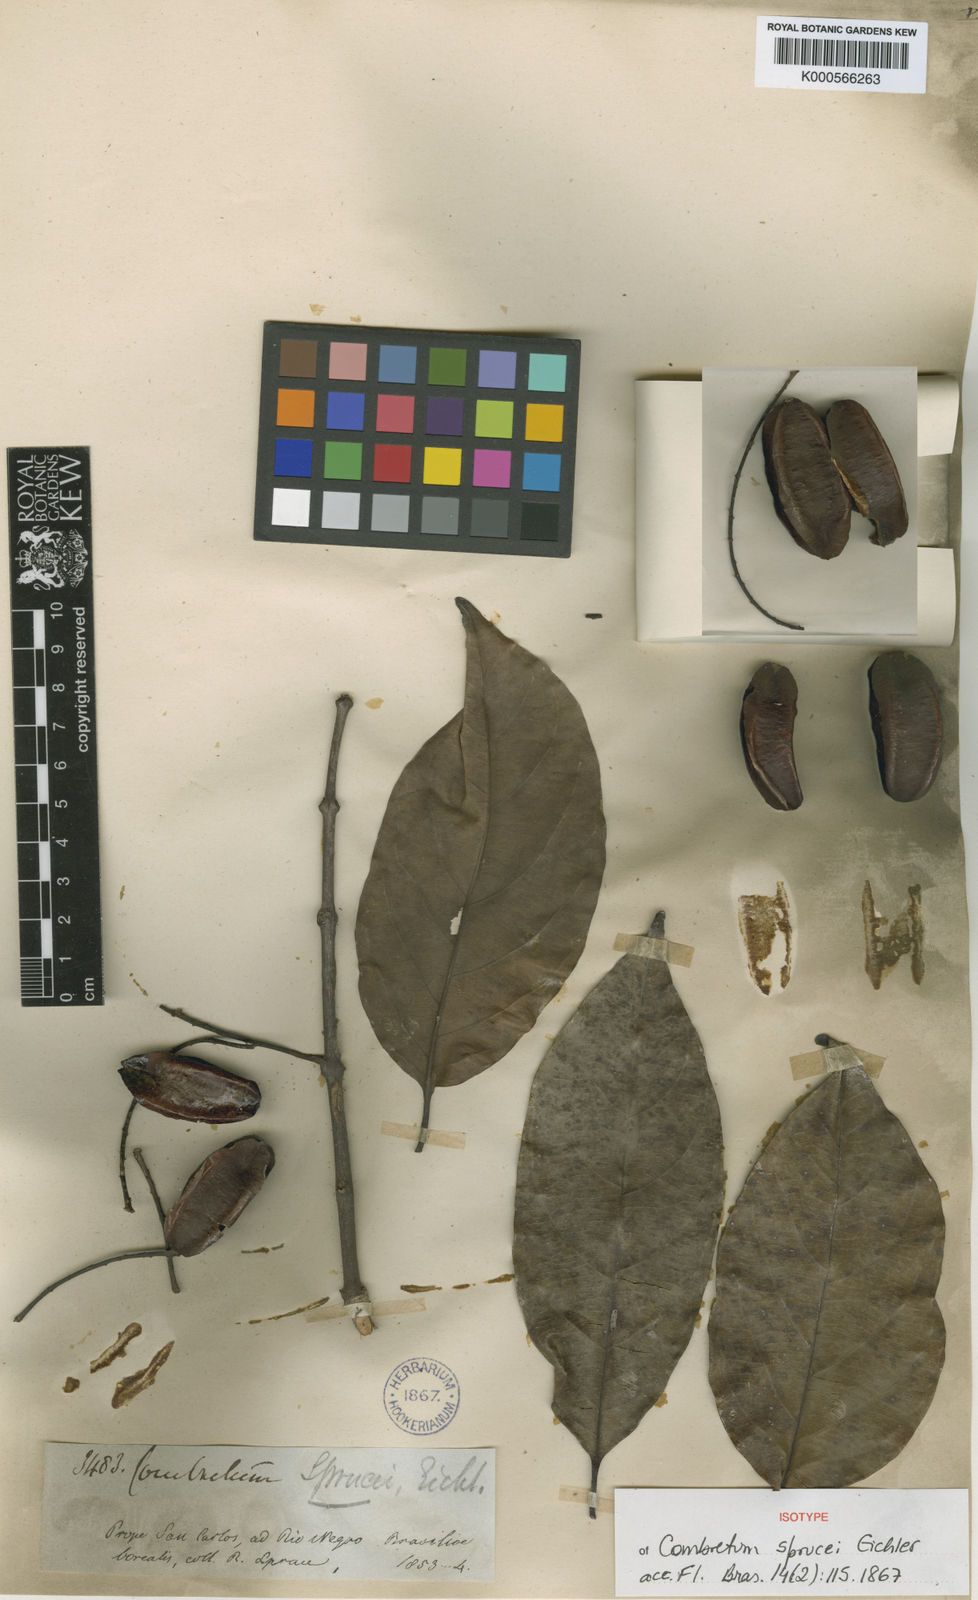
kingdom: Plantae
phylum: Tracheophyta
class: Magnoliopsida
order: Myrtales
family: Combretaceae
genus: Combretum
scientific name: Combretum paraguariense
